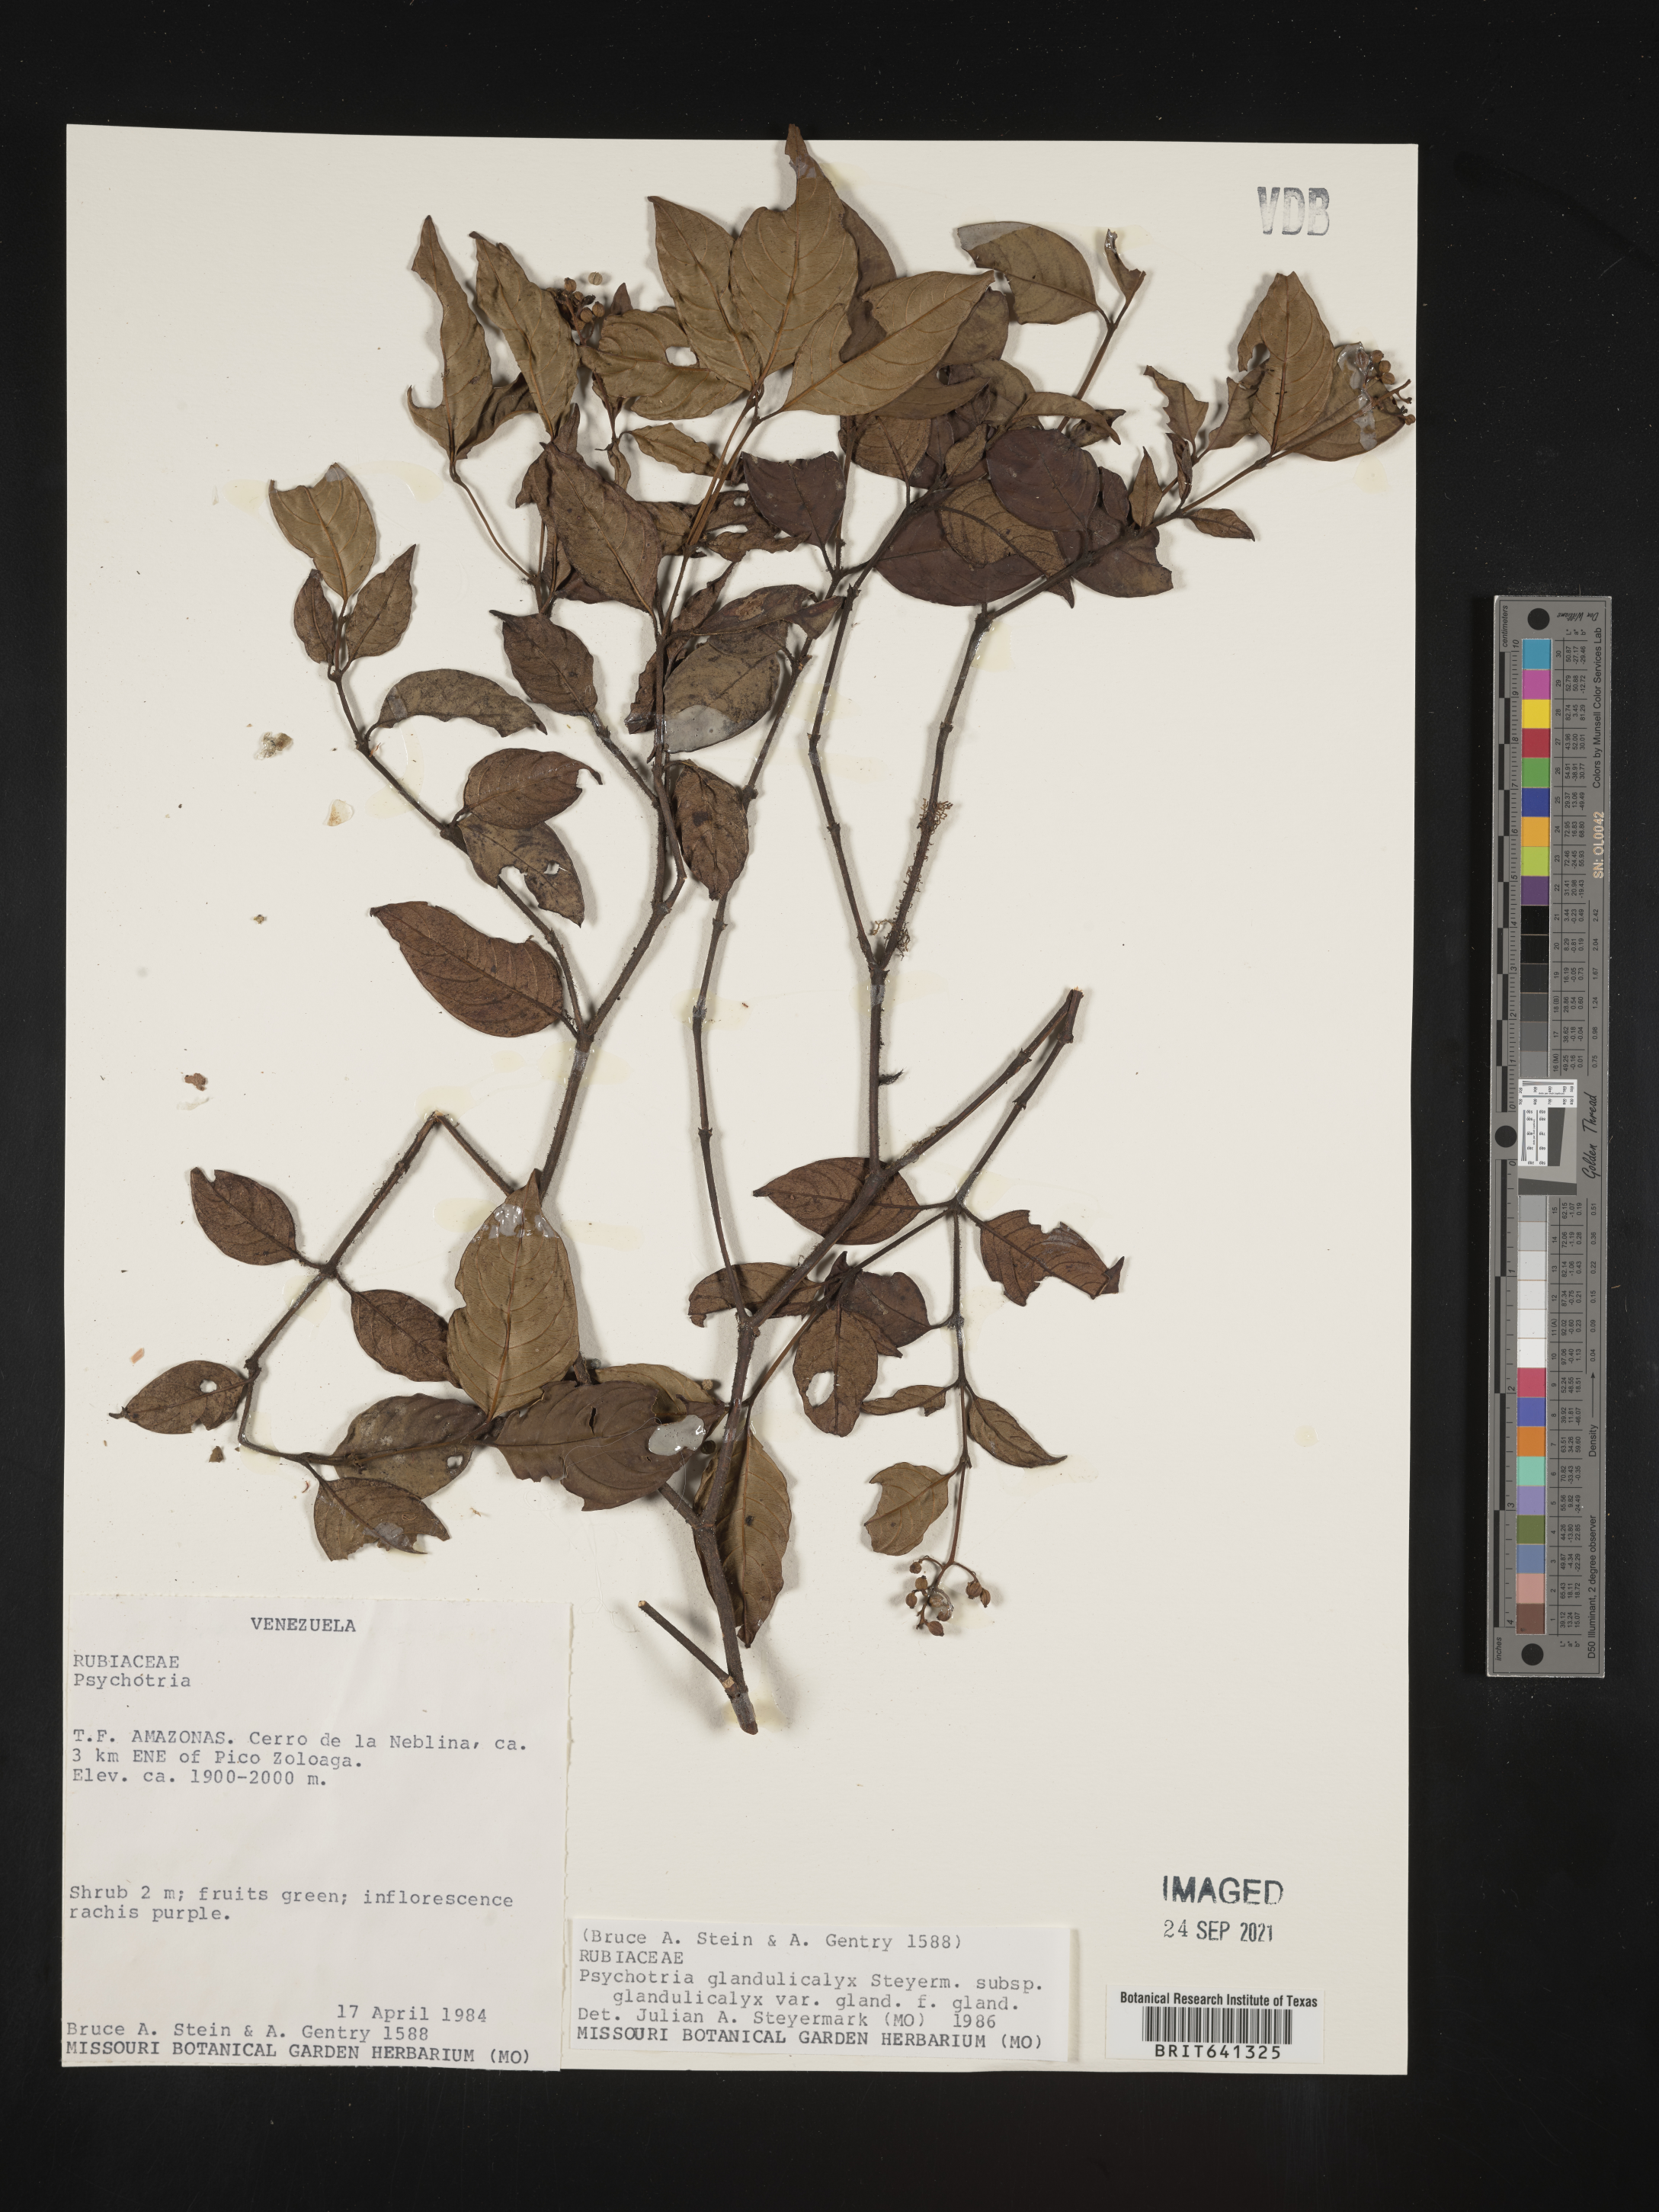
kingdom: Plantae
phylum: Tracheophyta
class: Magnoliopsida
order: Gentianales
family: Rubiaceae
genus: Psychotria
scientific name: Psychotria
